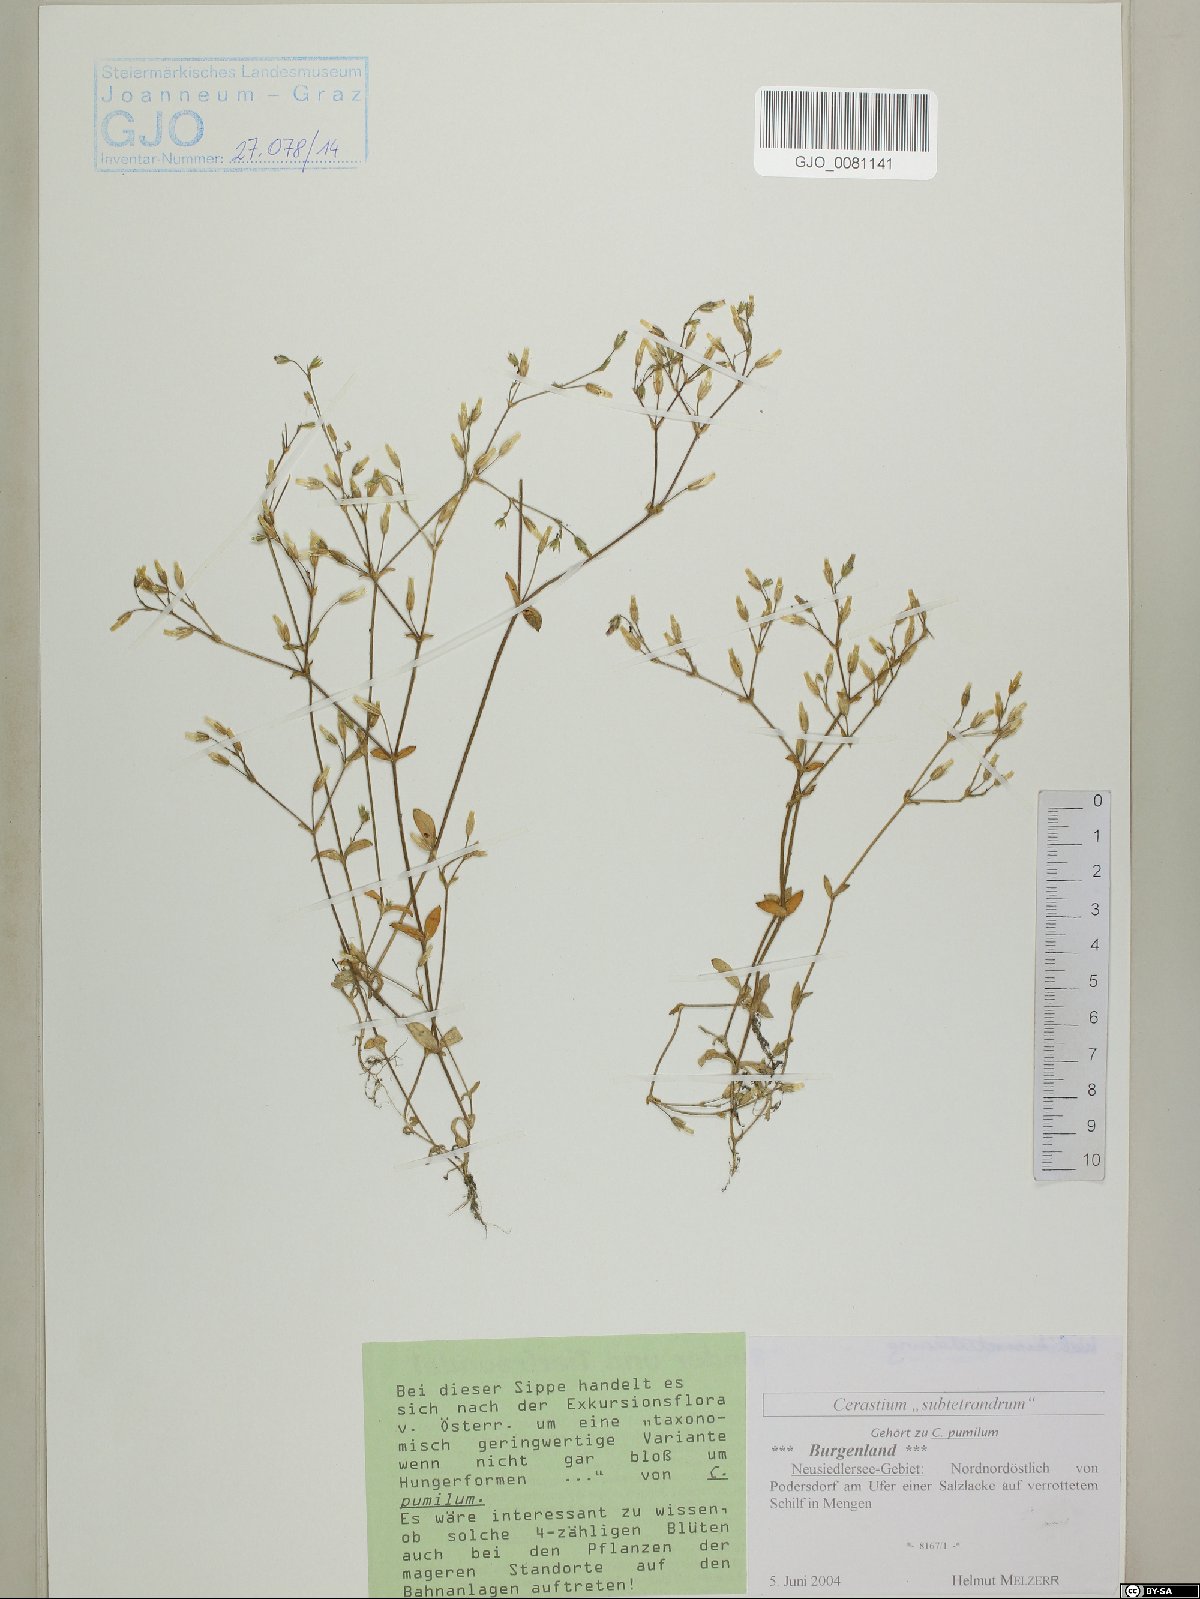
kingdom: Plantae
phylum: Tracheophyta
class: Magnoliopsida
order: Caryophyllales
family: Caryophyllaceae
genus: Cerastium
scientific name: Cerastium subtetrandrum
